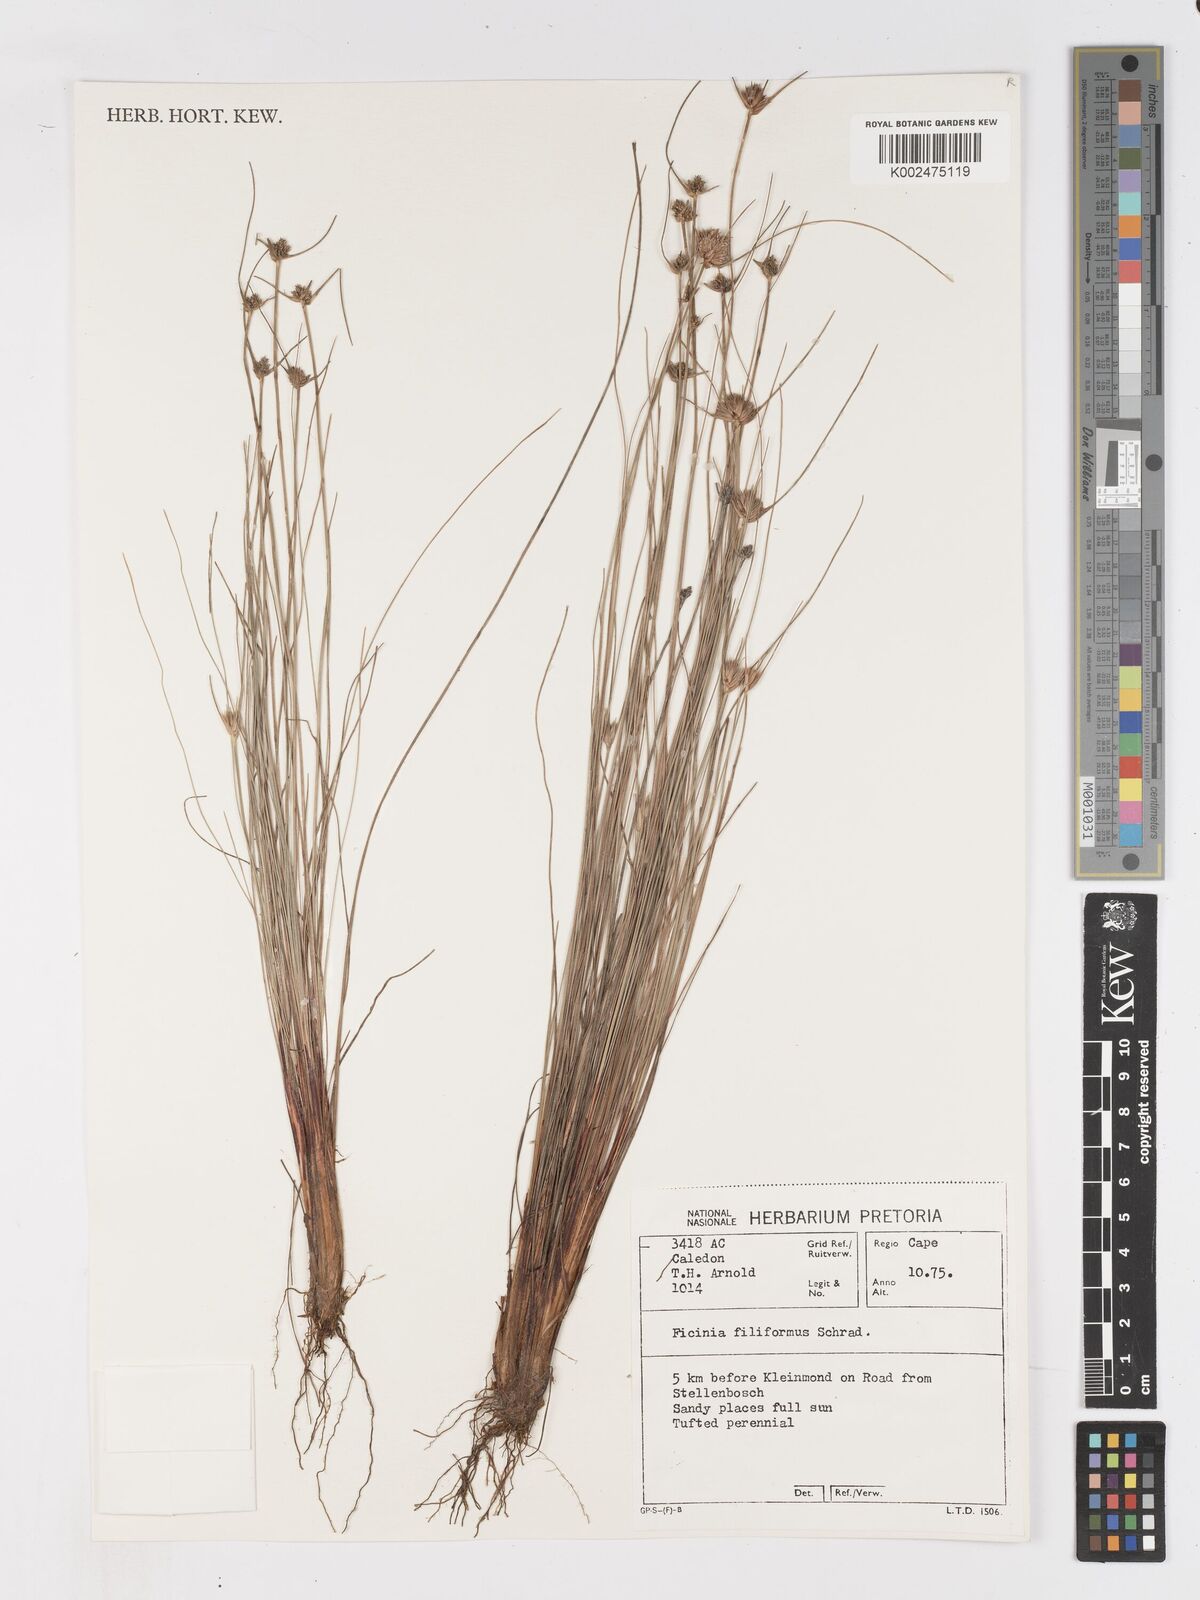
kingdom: Plantae
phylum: Tracheophyta
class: Liliopsida
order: Poales
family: Cyperaceae
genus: Ficinia
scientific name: Ficinia filiformis
